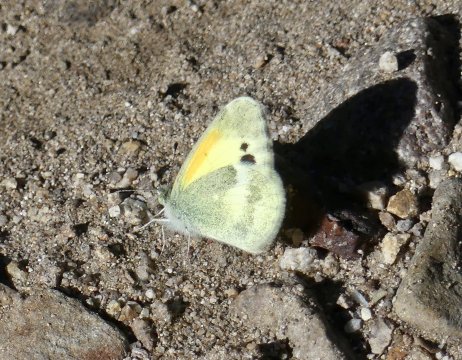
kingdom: Animalia
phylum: Arthropoda
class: Insecta
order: Lepidoptera
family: Pieridae
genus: Nathalis
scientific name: Nathalis iole
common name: Dainty Sulphur
